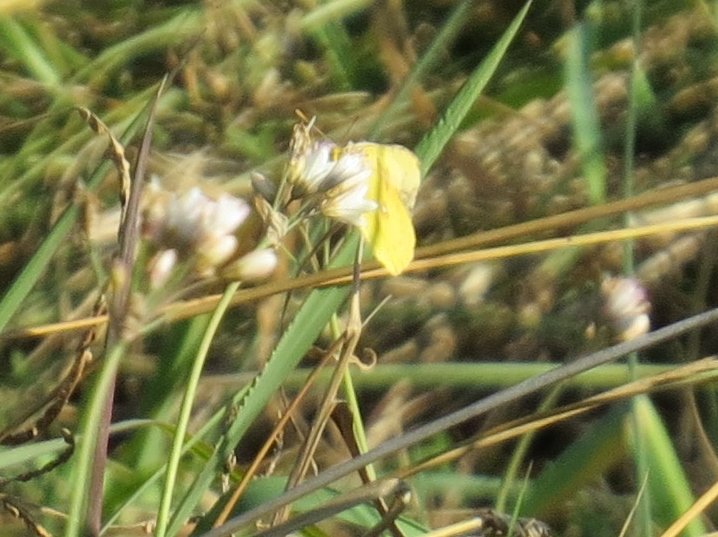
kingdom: Animalia
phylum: Arthropoda
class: Insecta
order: Lepidoptera
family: Pieridae
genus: Colias
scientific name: Colias eurytheme
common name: Orange Sulphur
